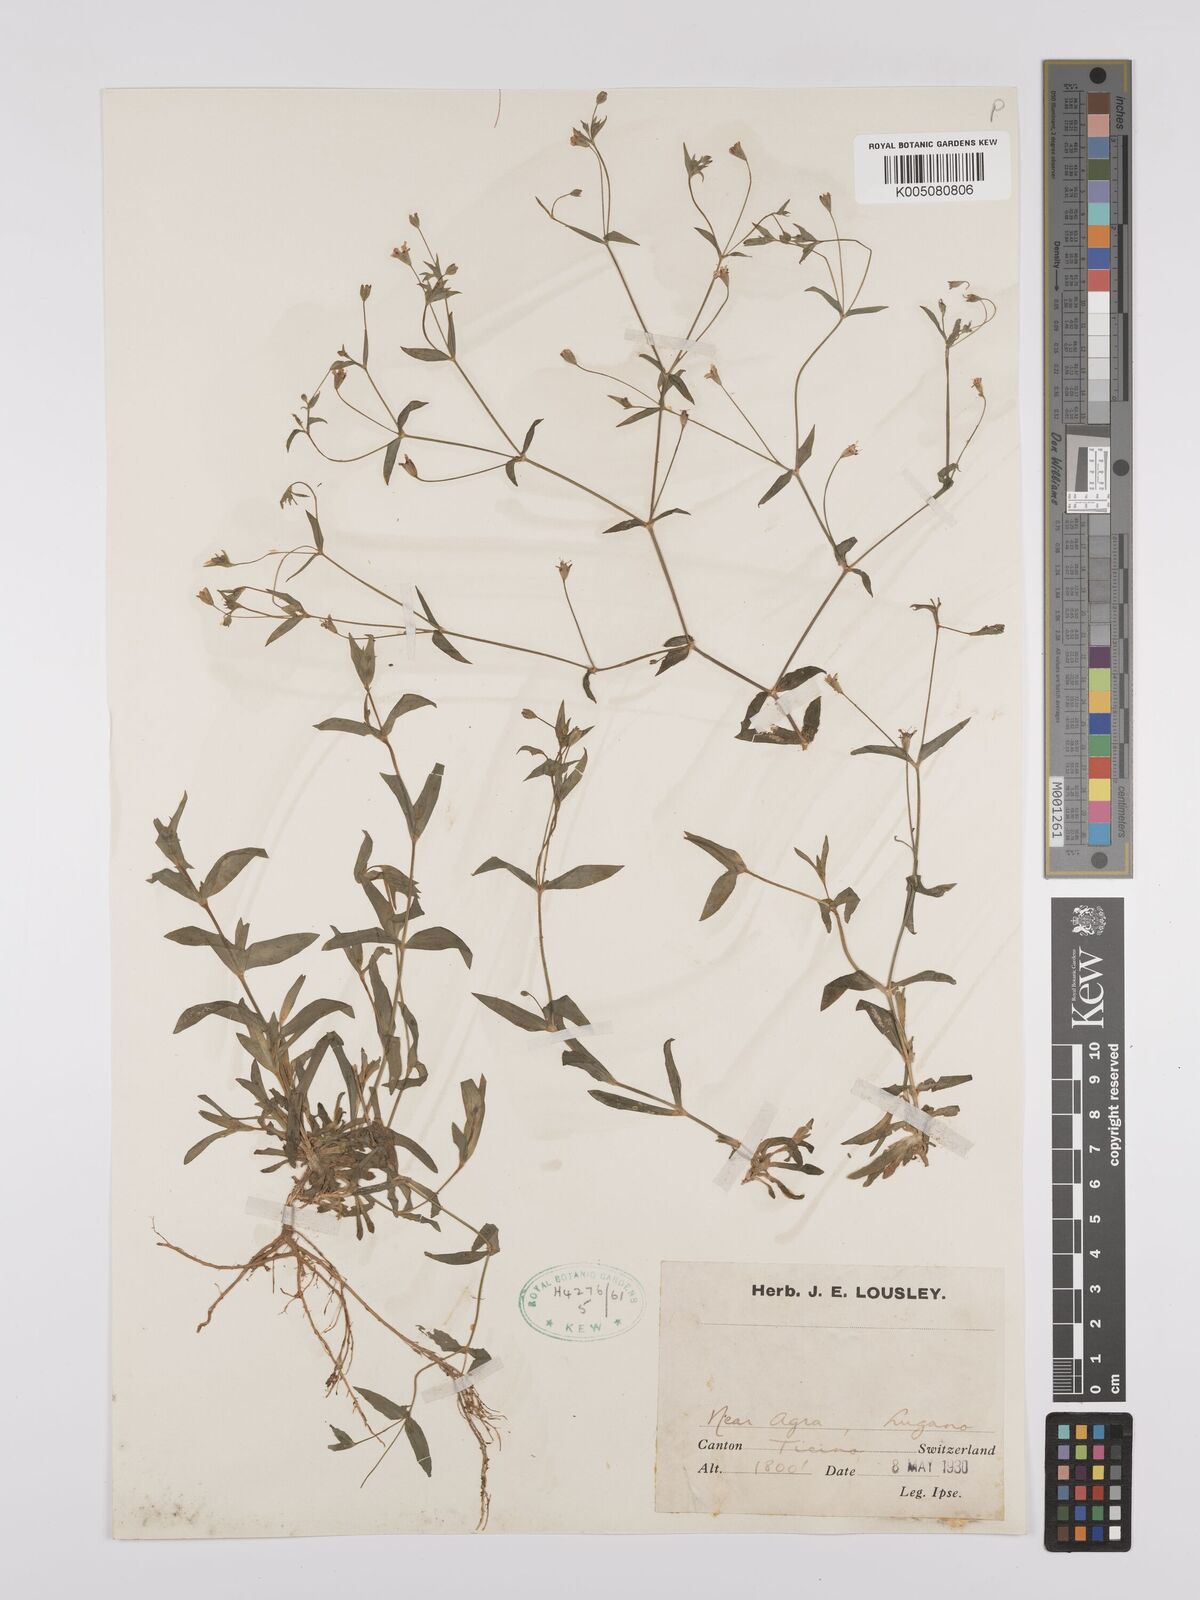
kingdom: Plantae
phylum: Tracheophyta
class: Magnoliopsida
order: Caryophyllales
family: Caryophyllaceae
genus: Gypsophila
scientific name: Gypsophila
